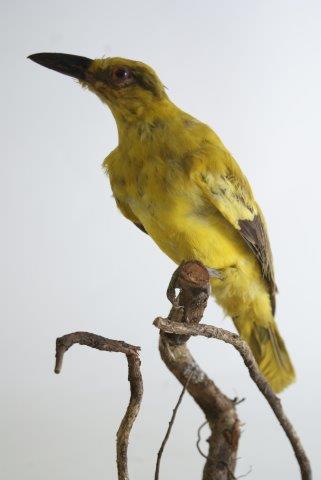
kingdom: Animalia
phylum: Chordata
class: Aves
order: Passeriformes
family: Oriolidae
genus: Oriolus
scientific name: Oriolus chinensis
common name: Black-naped oriole
